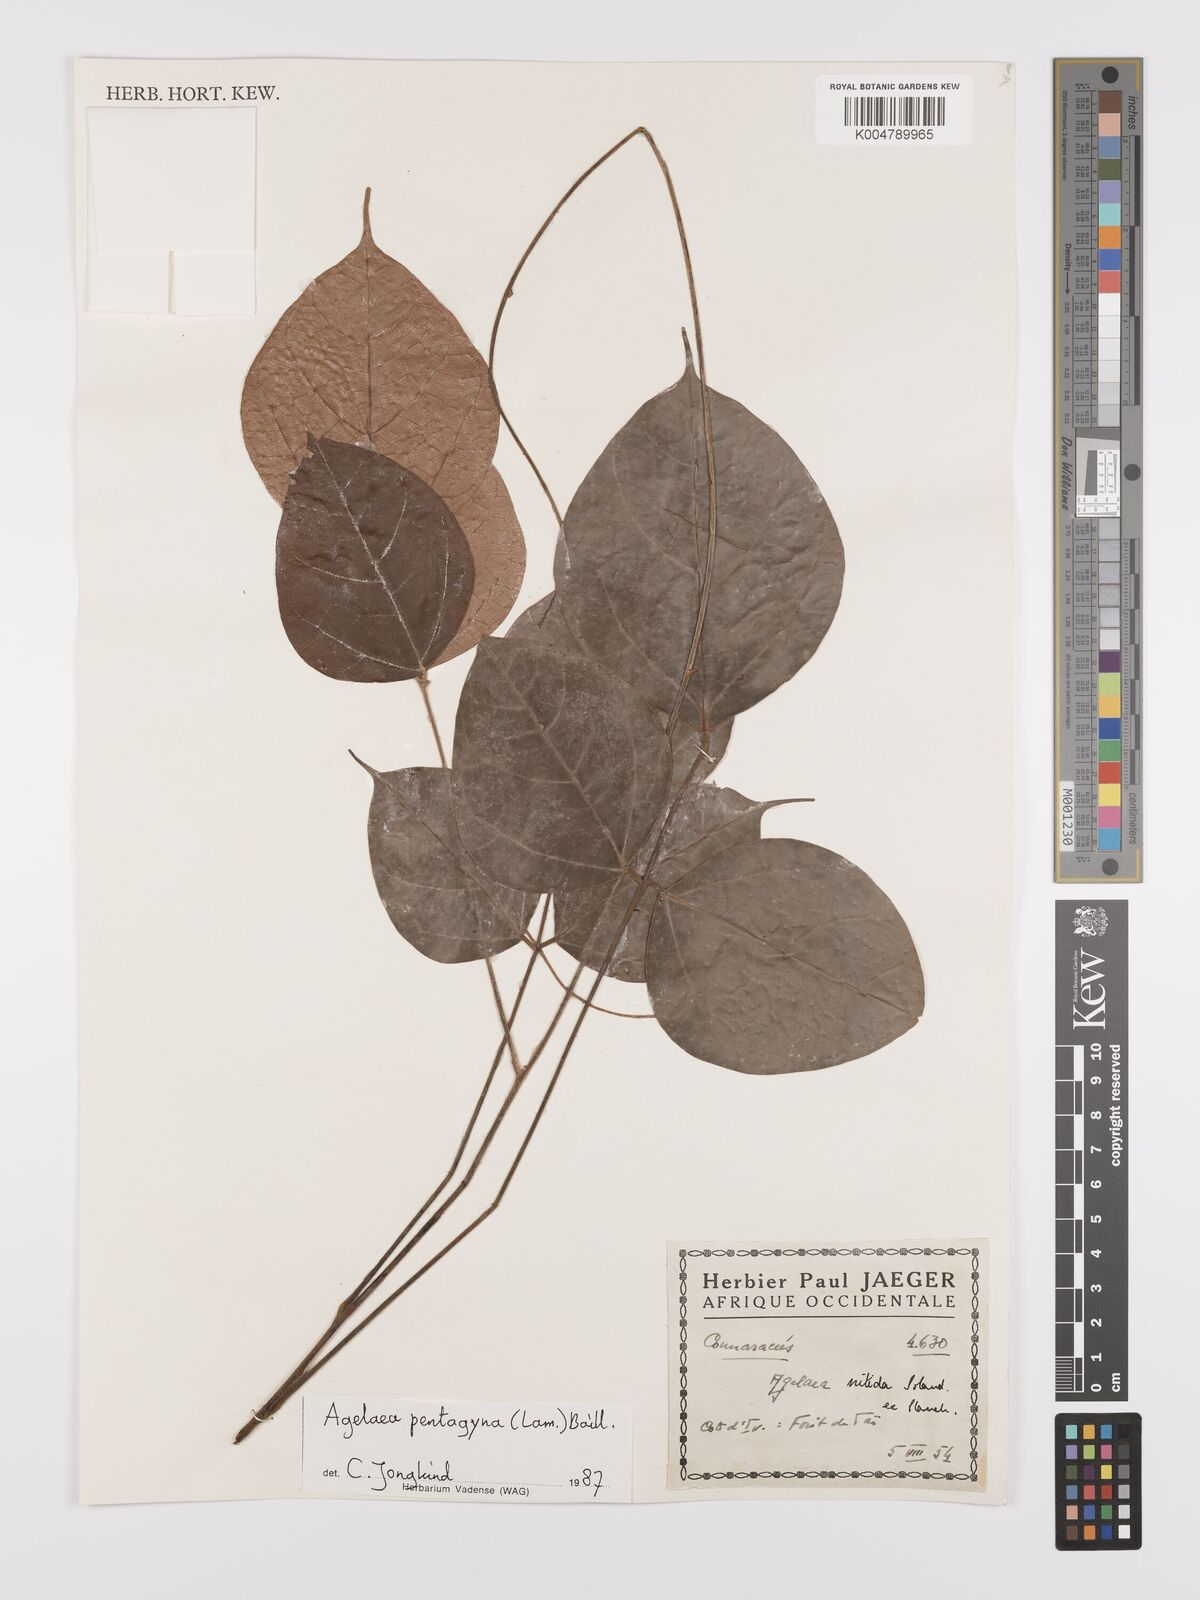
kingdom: Plantae
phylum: Tracheophyta
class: Magnoliopsida
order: Oxalidales
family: Connaraceae
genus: Agelaea
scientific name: Agelaea pentagyna
